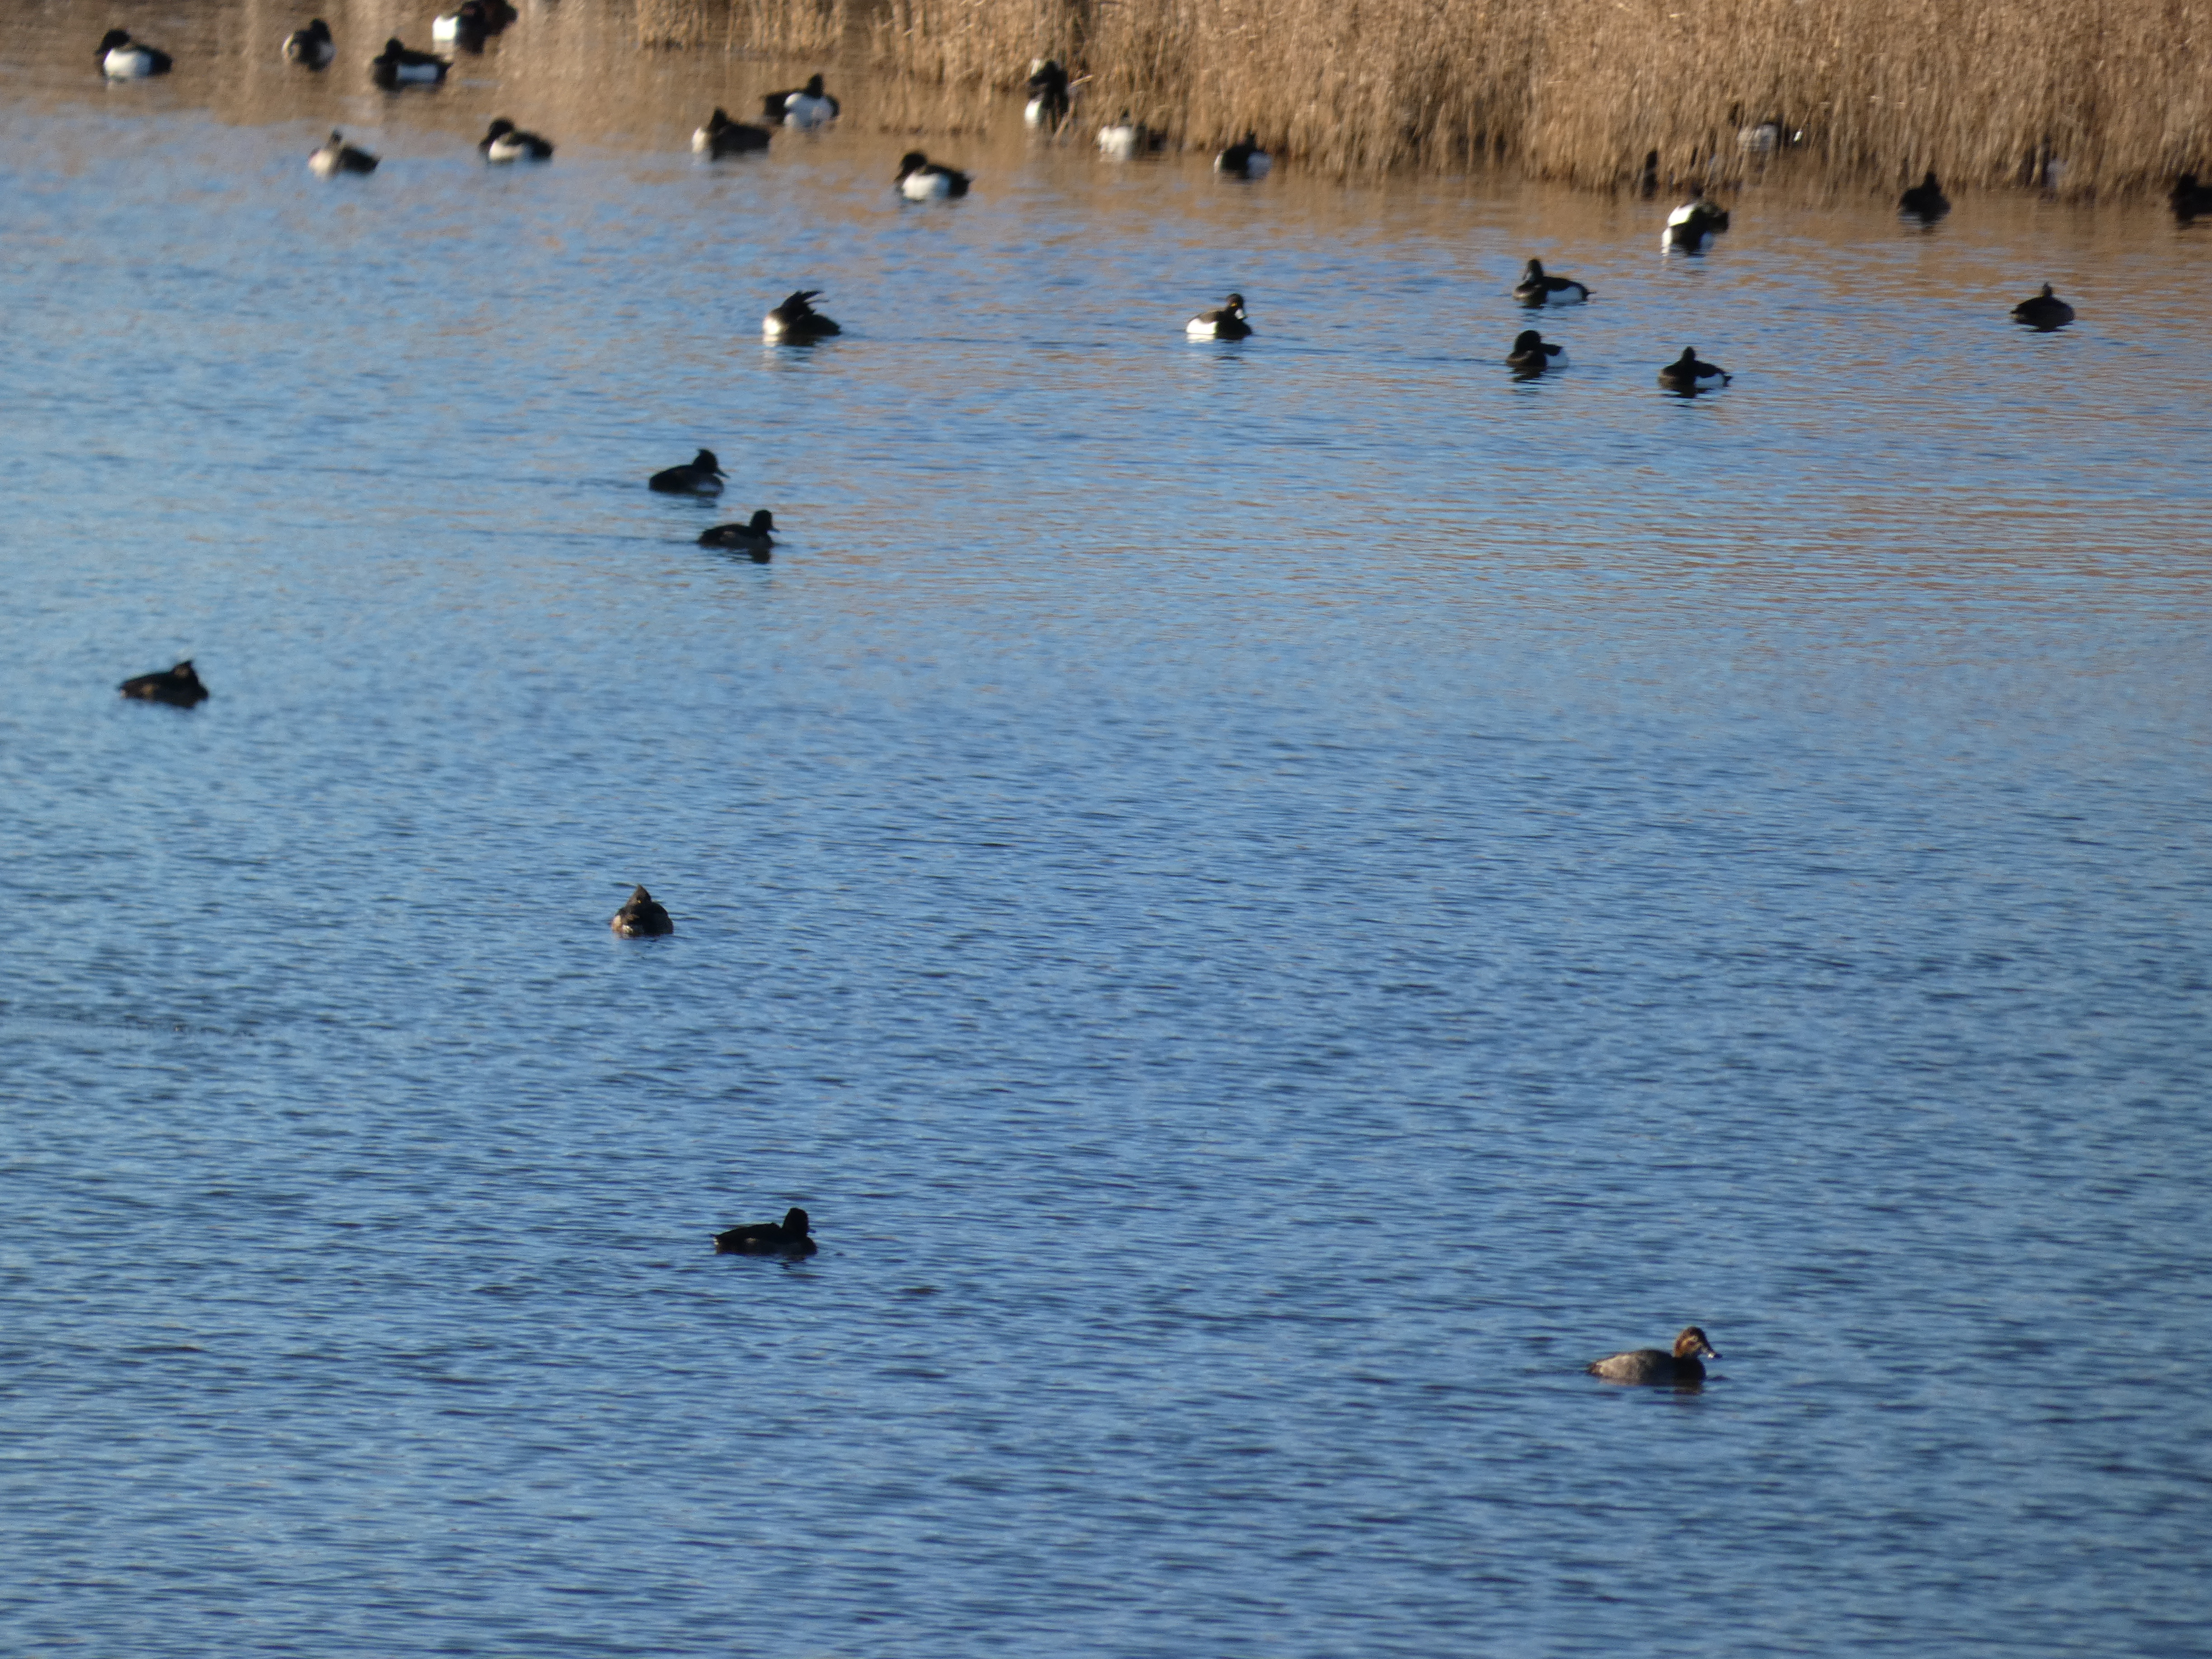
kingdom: Animalia
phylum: Chordata
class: Aves
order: Anseriformes
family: Anatidae
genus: Aythya
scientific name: Aythya ferina
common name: Taffeland
